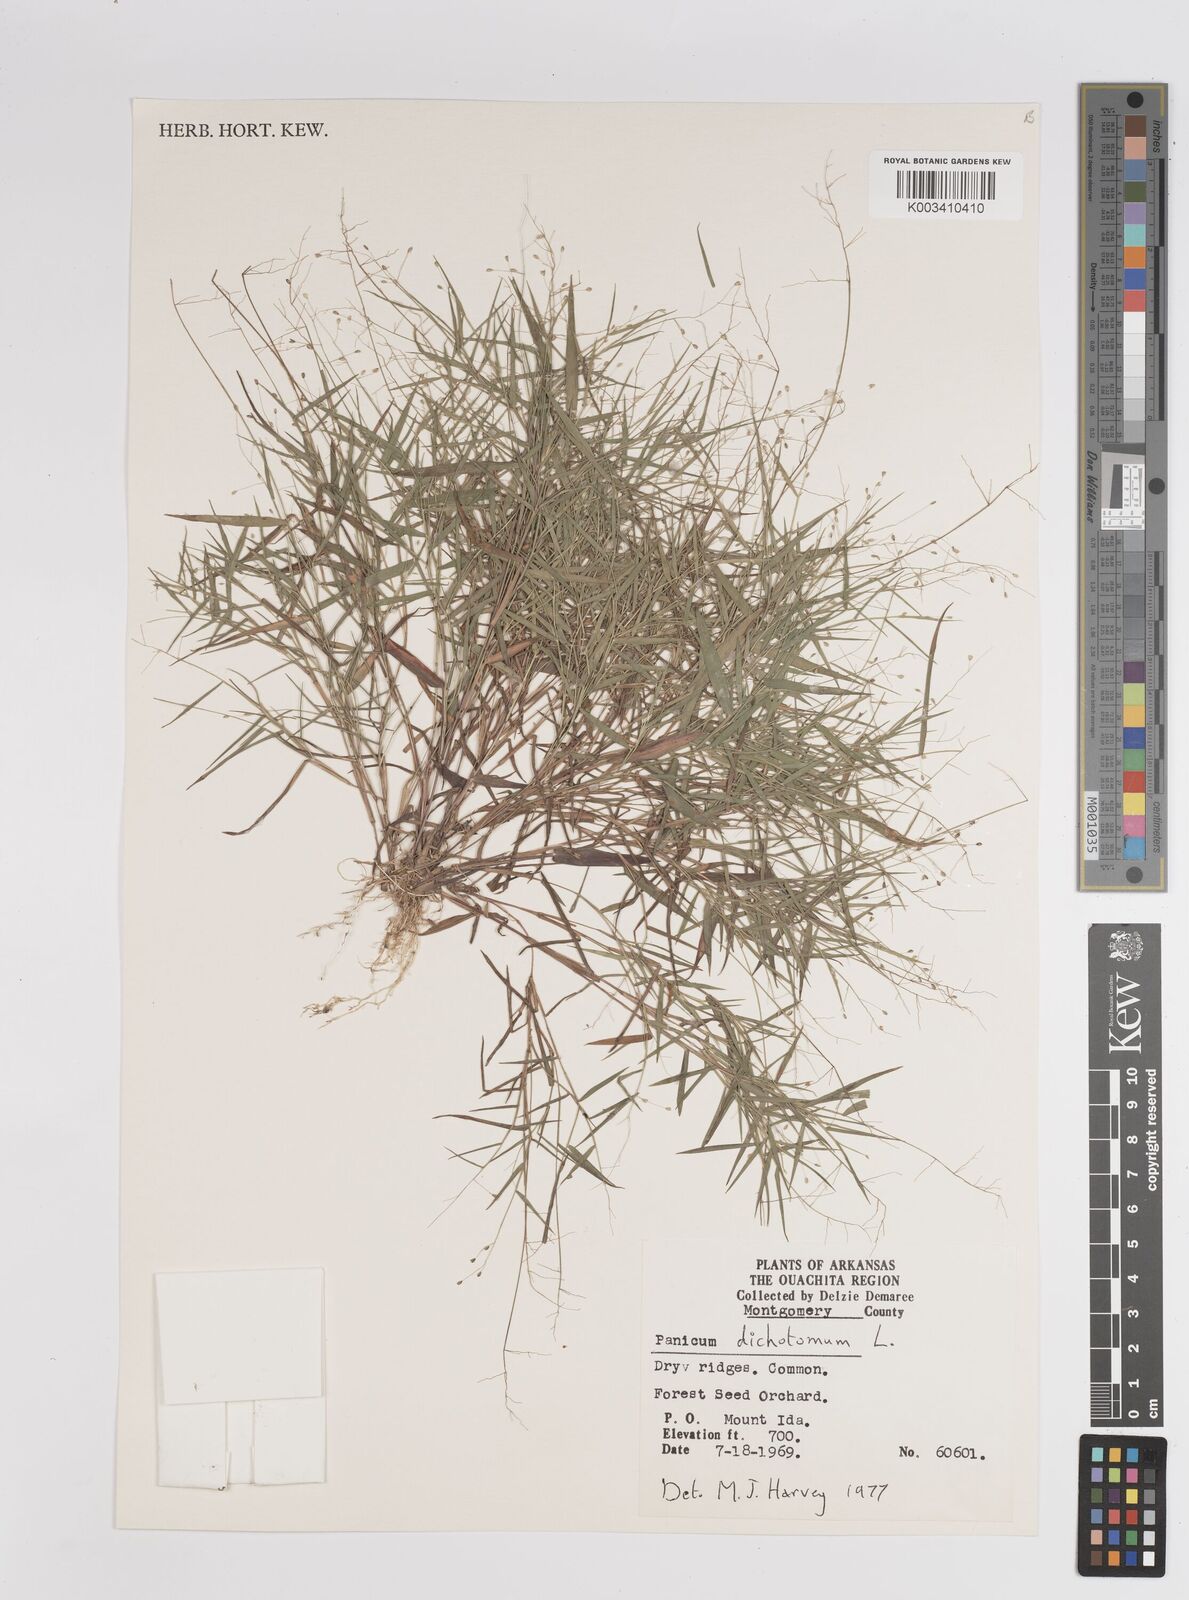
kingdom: Plantae
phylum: Tracheophyta
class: Liliopsida
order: Poales
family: Poaceae
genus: Dichanthelium
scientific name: Dichanthelium dichotomum
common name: Cypress panicgrass
